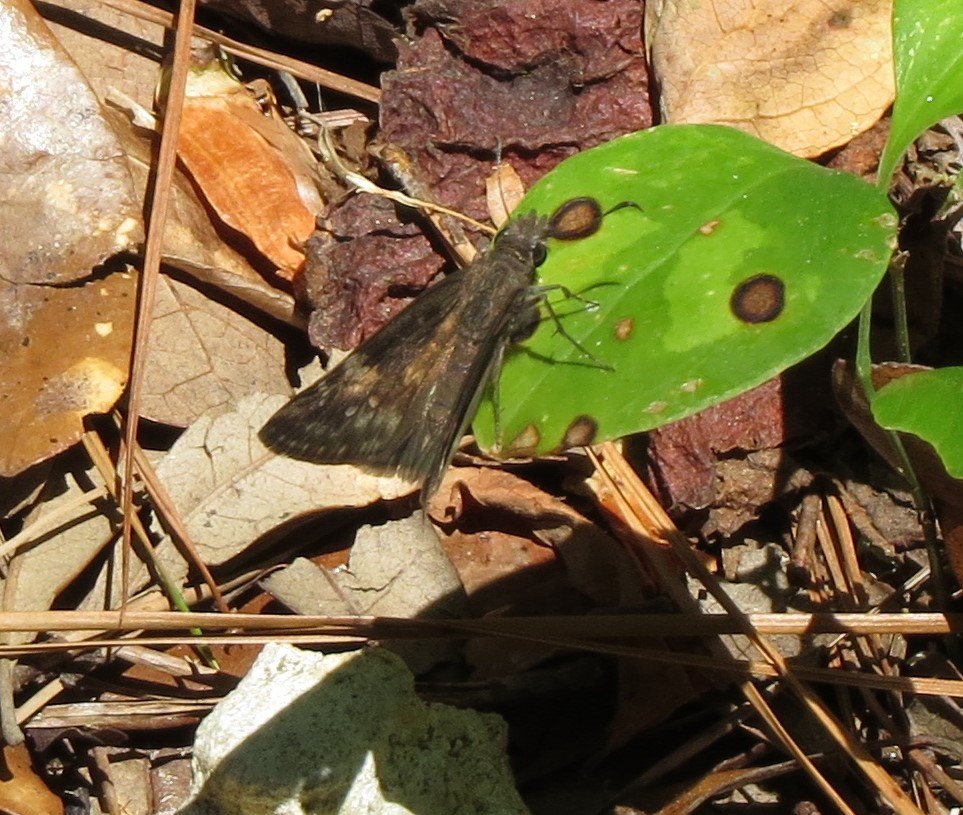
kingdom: Animalia
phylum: Arthropoda
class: Insecta
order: Lepidoptera
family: Hesperiidae
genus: Erynnis
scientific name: Erynnis zarucco
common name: Zarucco Duskywing
